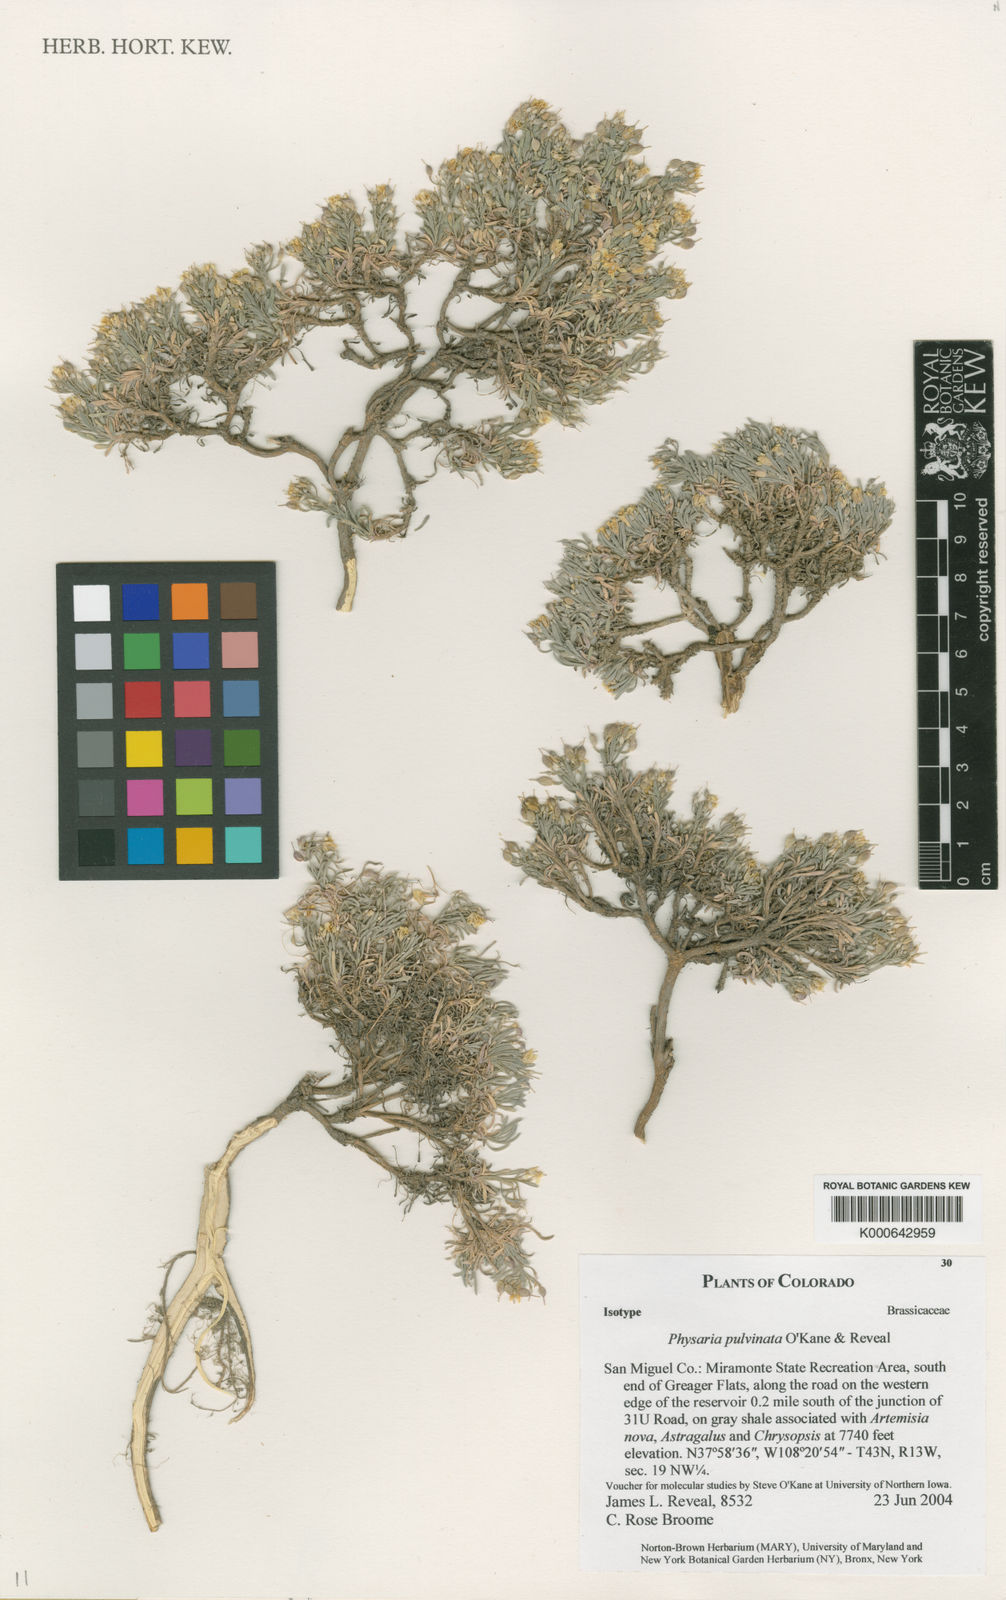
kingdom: Plantae
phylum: Tracheophyta
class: Magnoliopsida
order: Brassicales
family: Brassicaceae
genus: Physaria
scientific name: Physaria pulvinata
